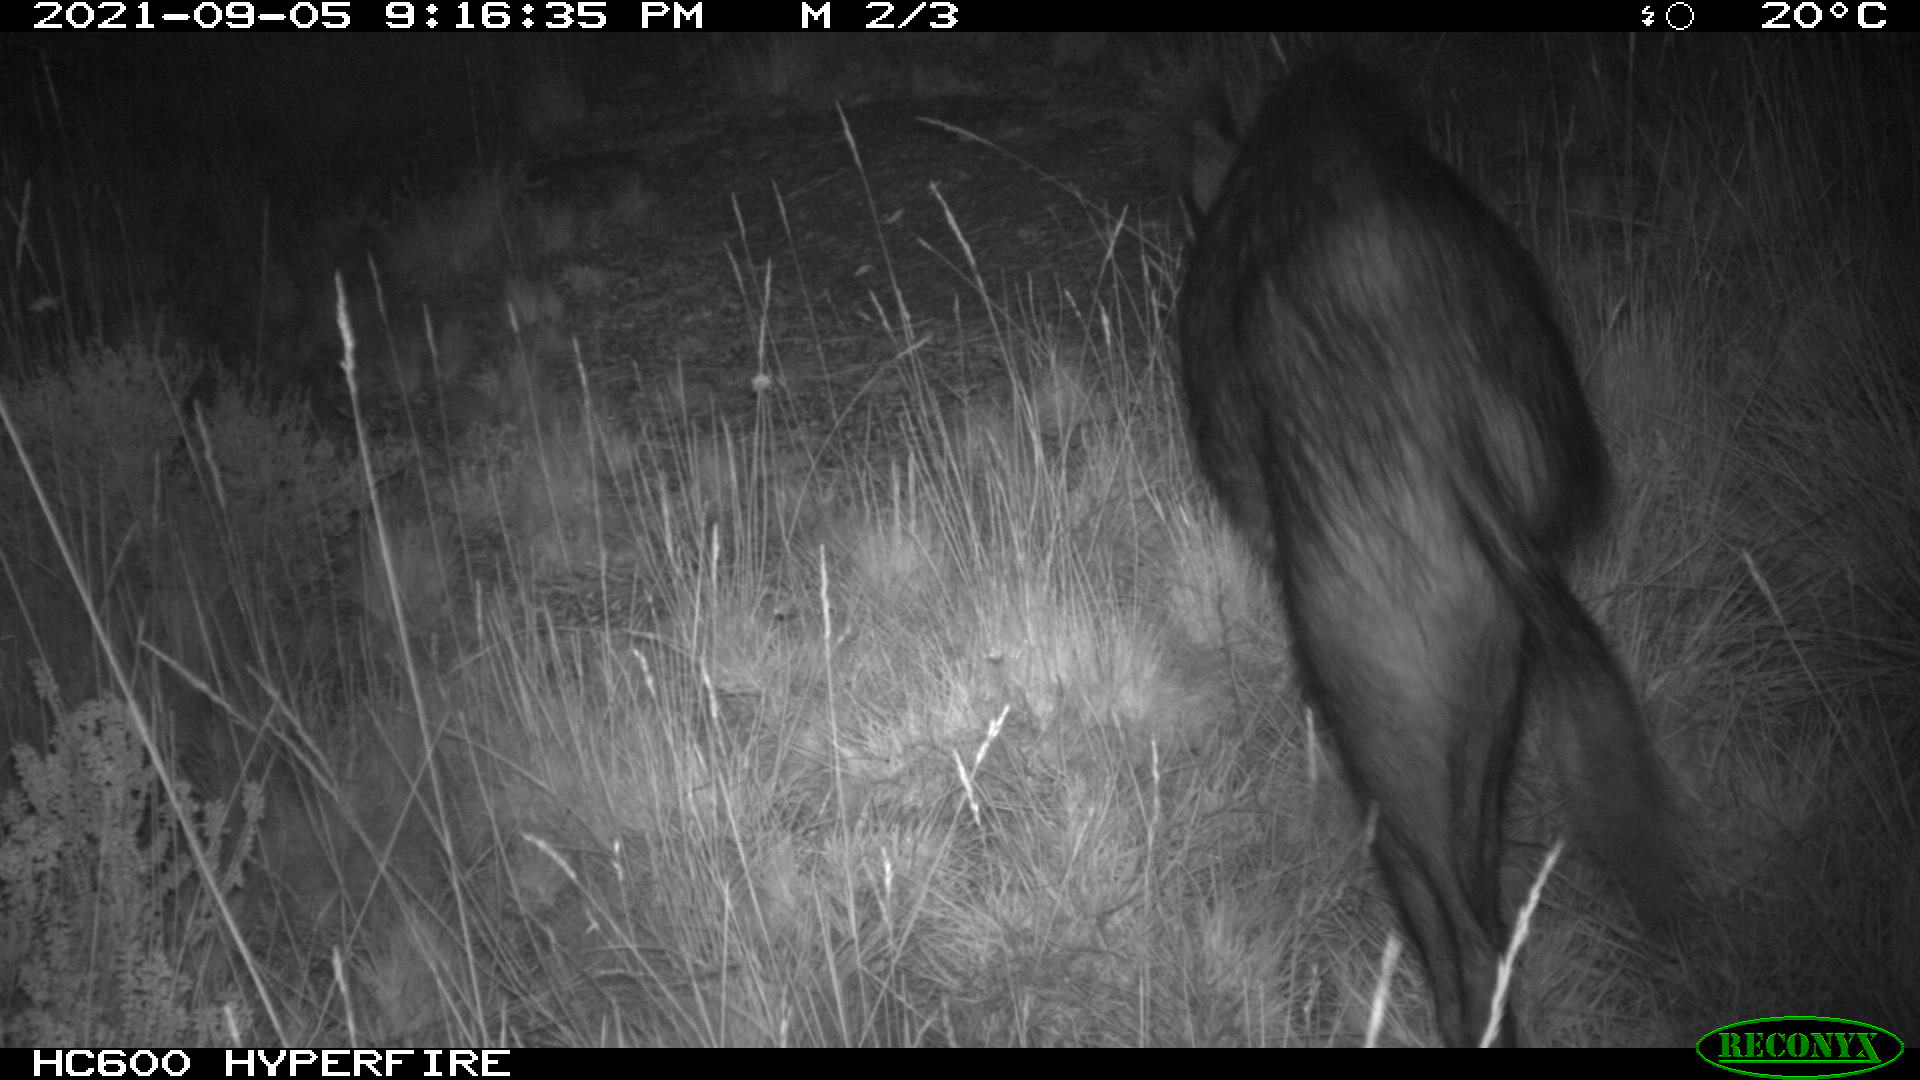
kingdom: Animalia
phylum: Chordata
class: Mammalia
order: Artiodactyla
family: Suidae
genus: Sus
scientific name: Sus scrofa
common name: Wild boar
